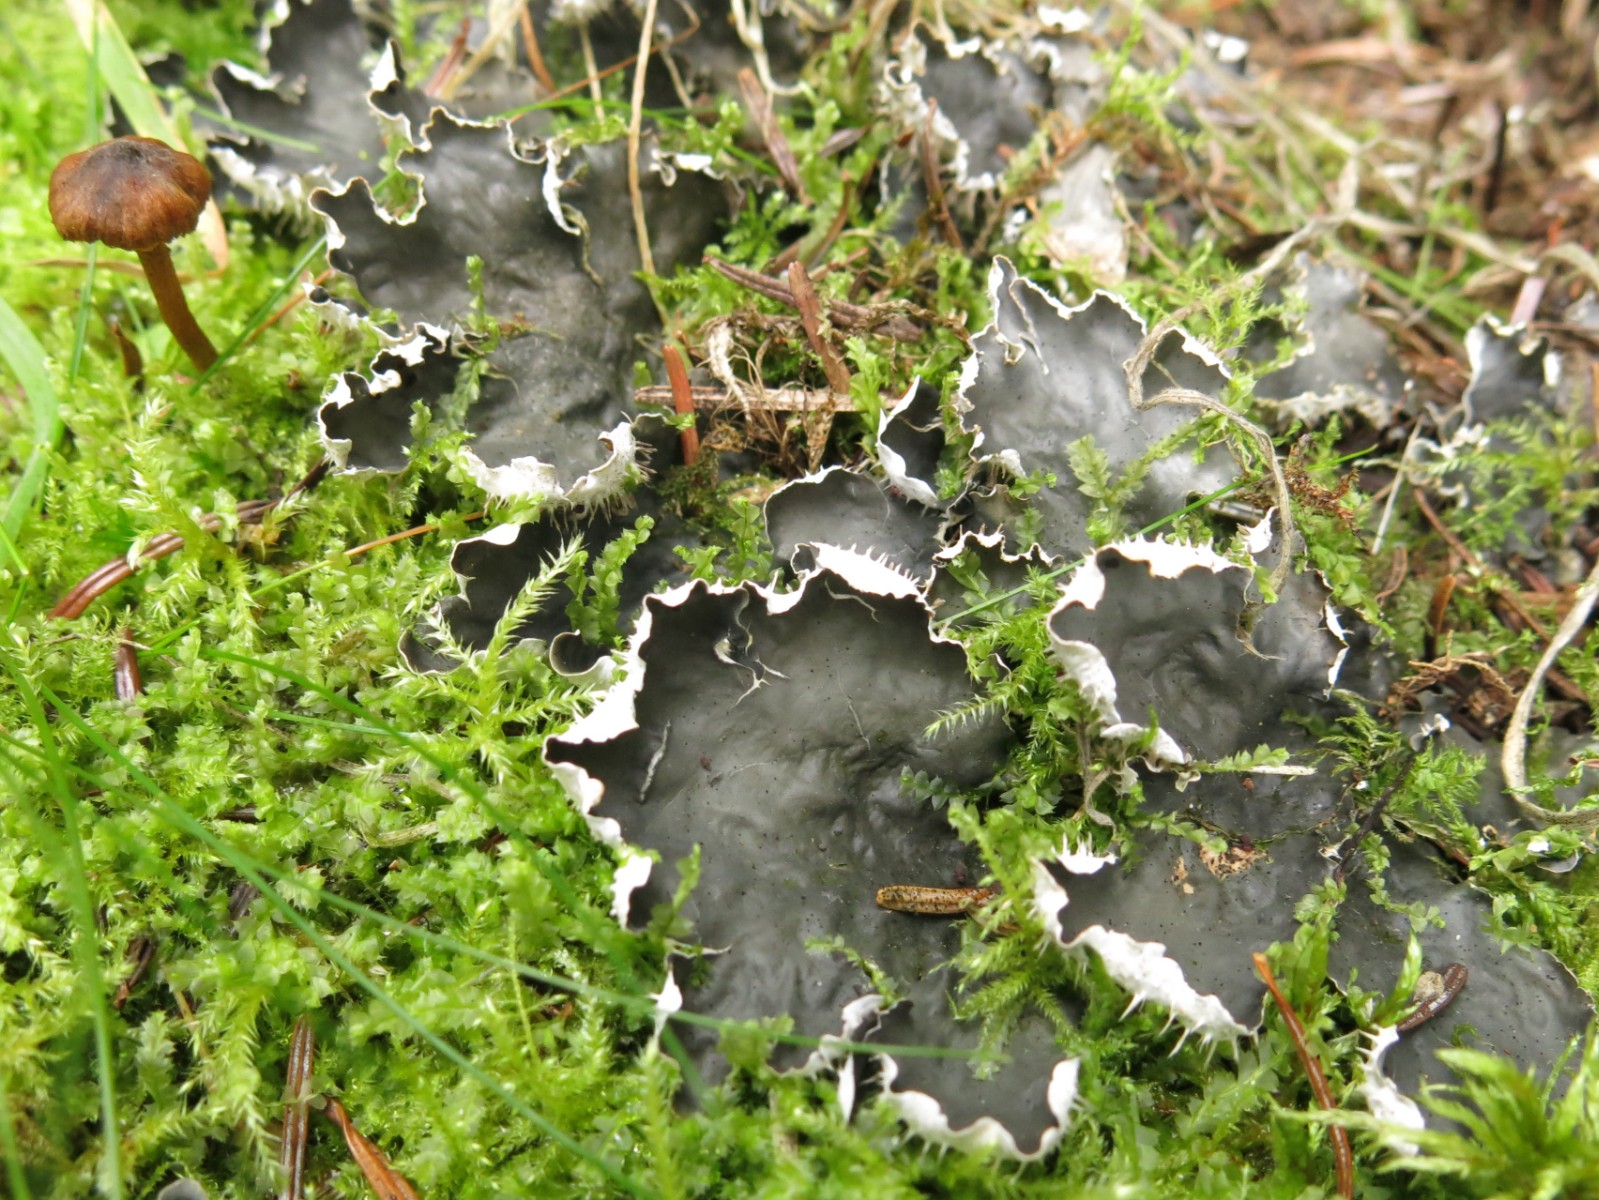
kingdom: Fungi
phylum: Ascomycota
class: Lecanoromycetes
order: Peltigerales
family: Peltigeraceae
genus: Peltigera
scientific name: Peltigera hymenina
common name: hinde-skjoldlav
